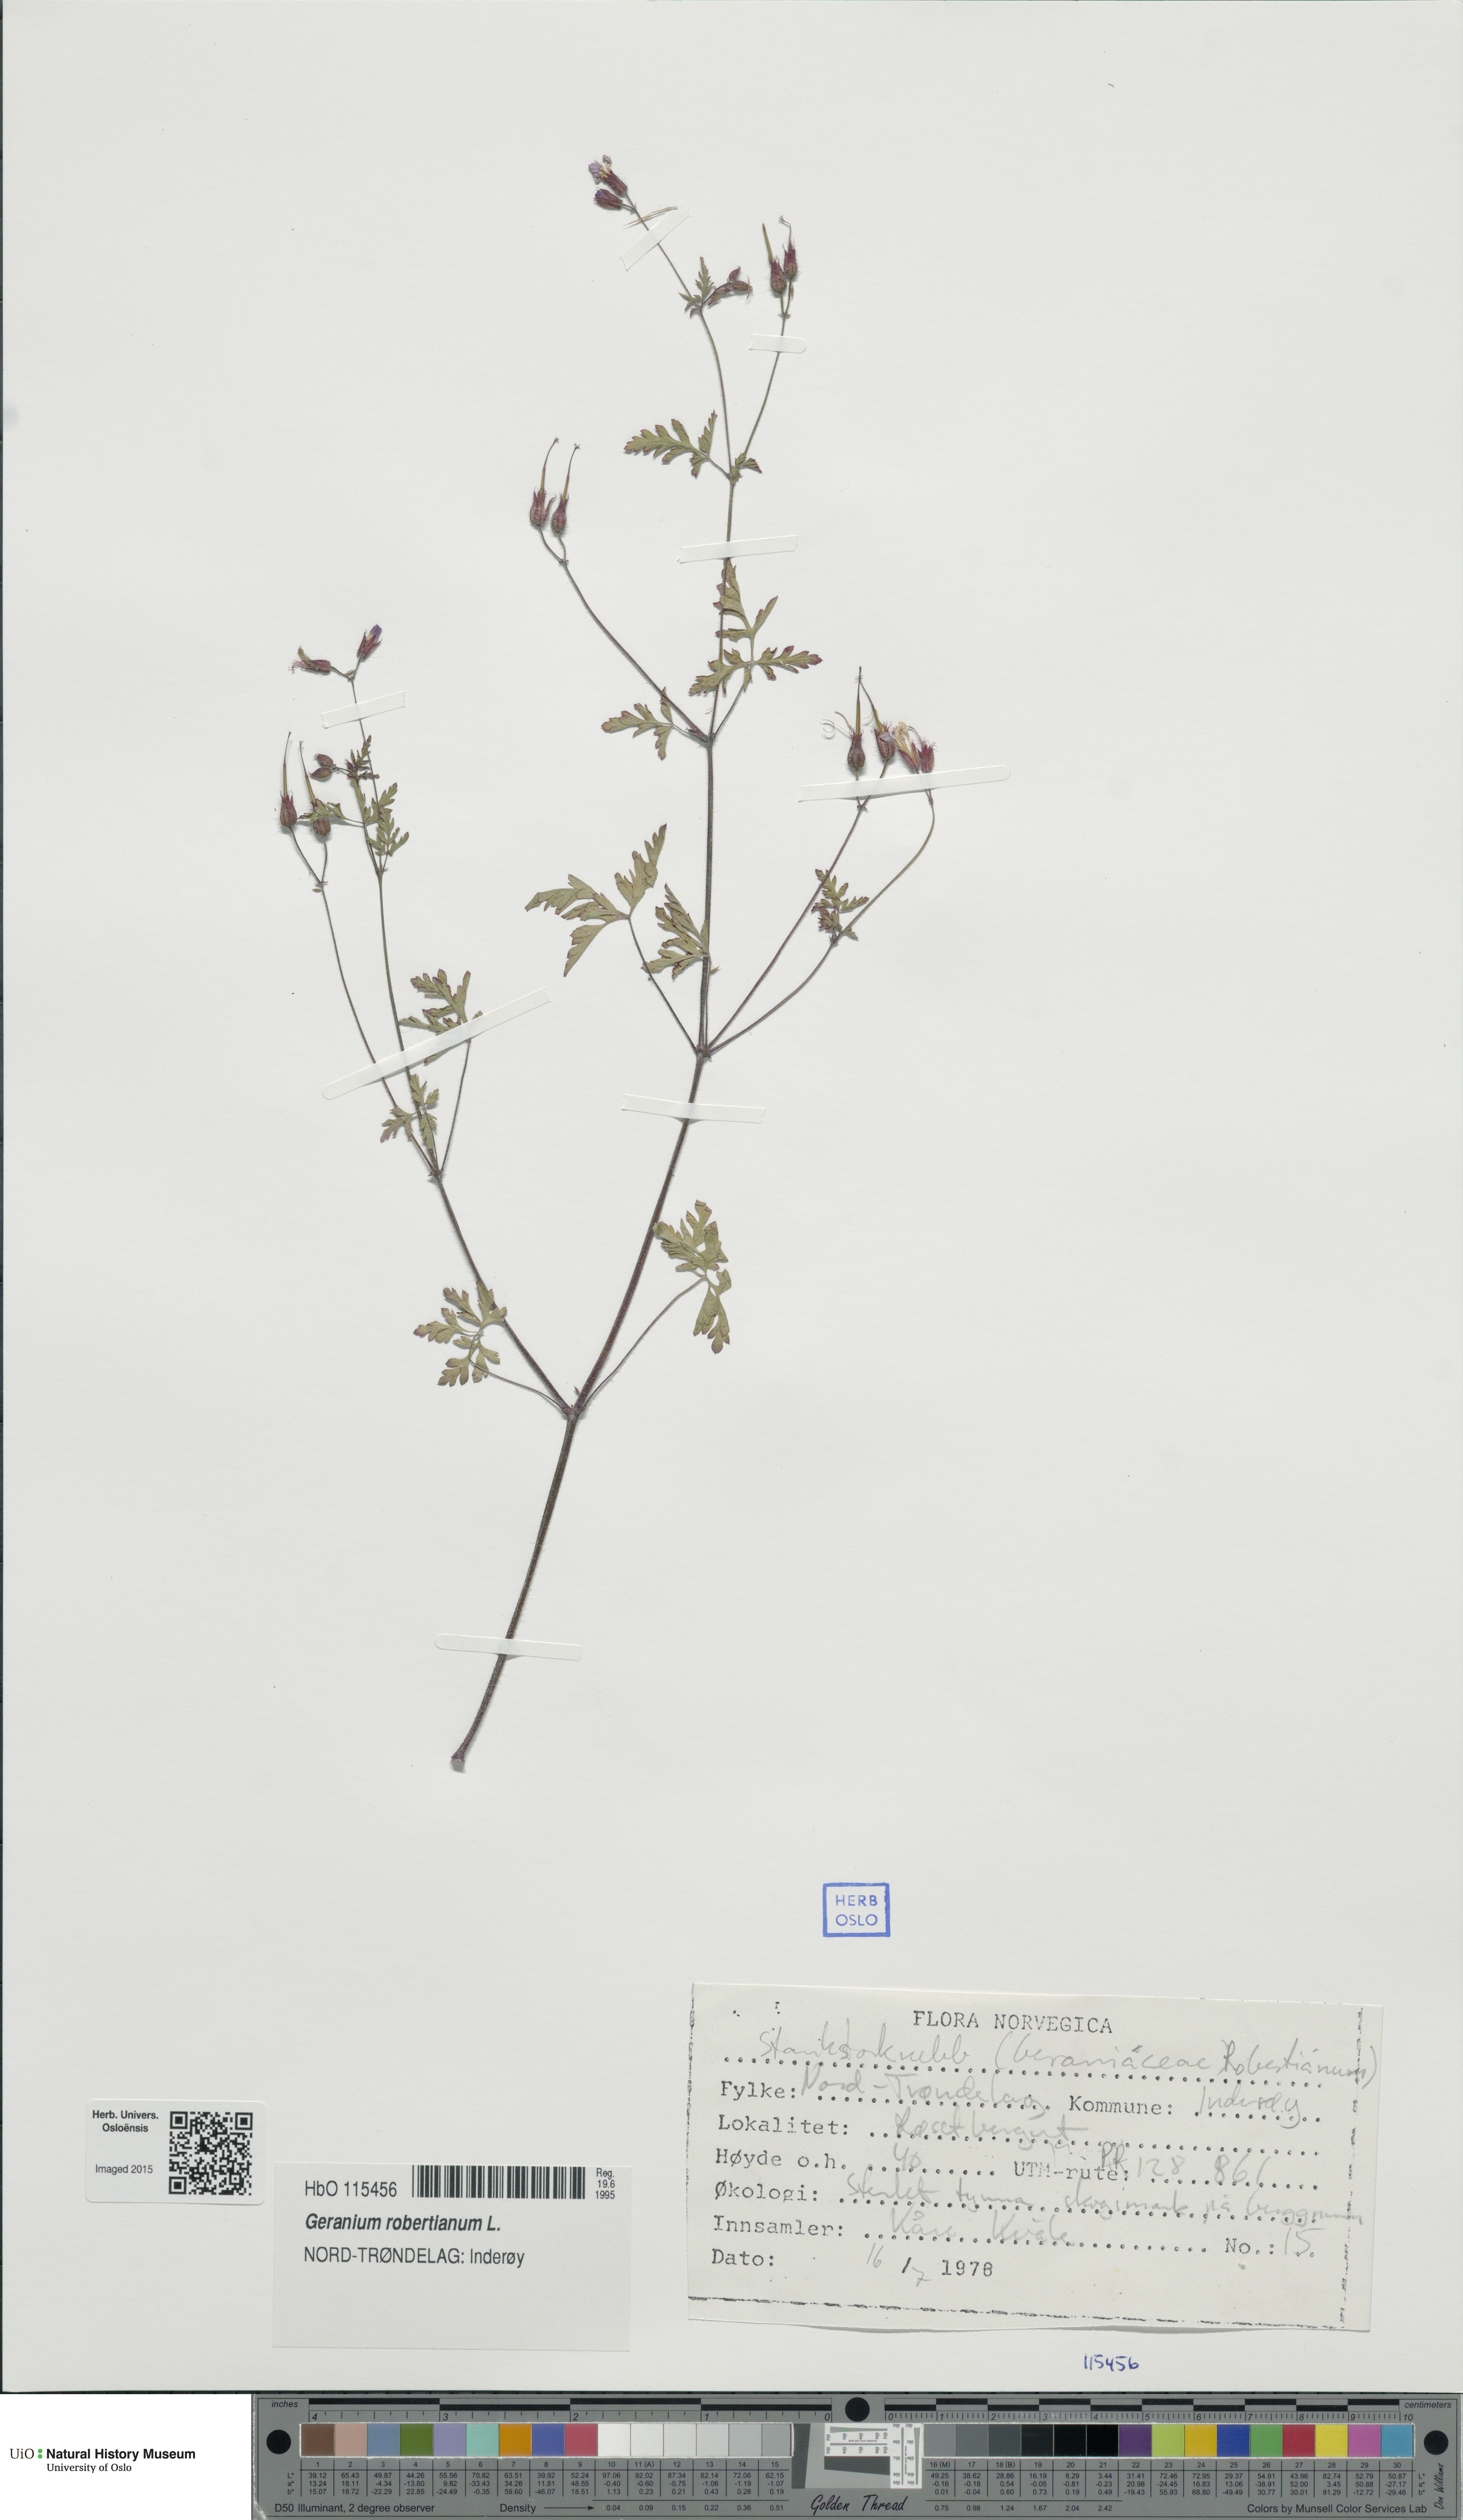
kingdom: Plantae
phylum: Tracheophyta
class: Magnoliopsida
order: Geraniales
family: Geraniaceae
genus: Geranium
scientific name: Geranium robertianum
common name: Herb-robert
